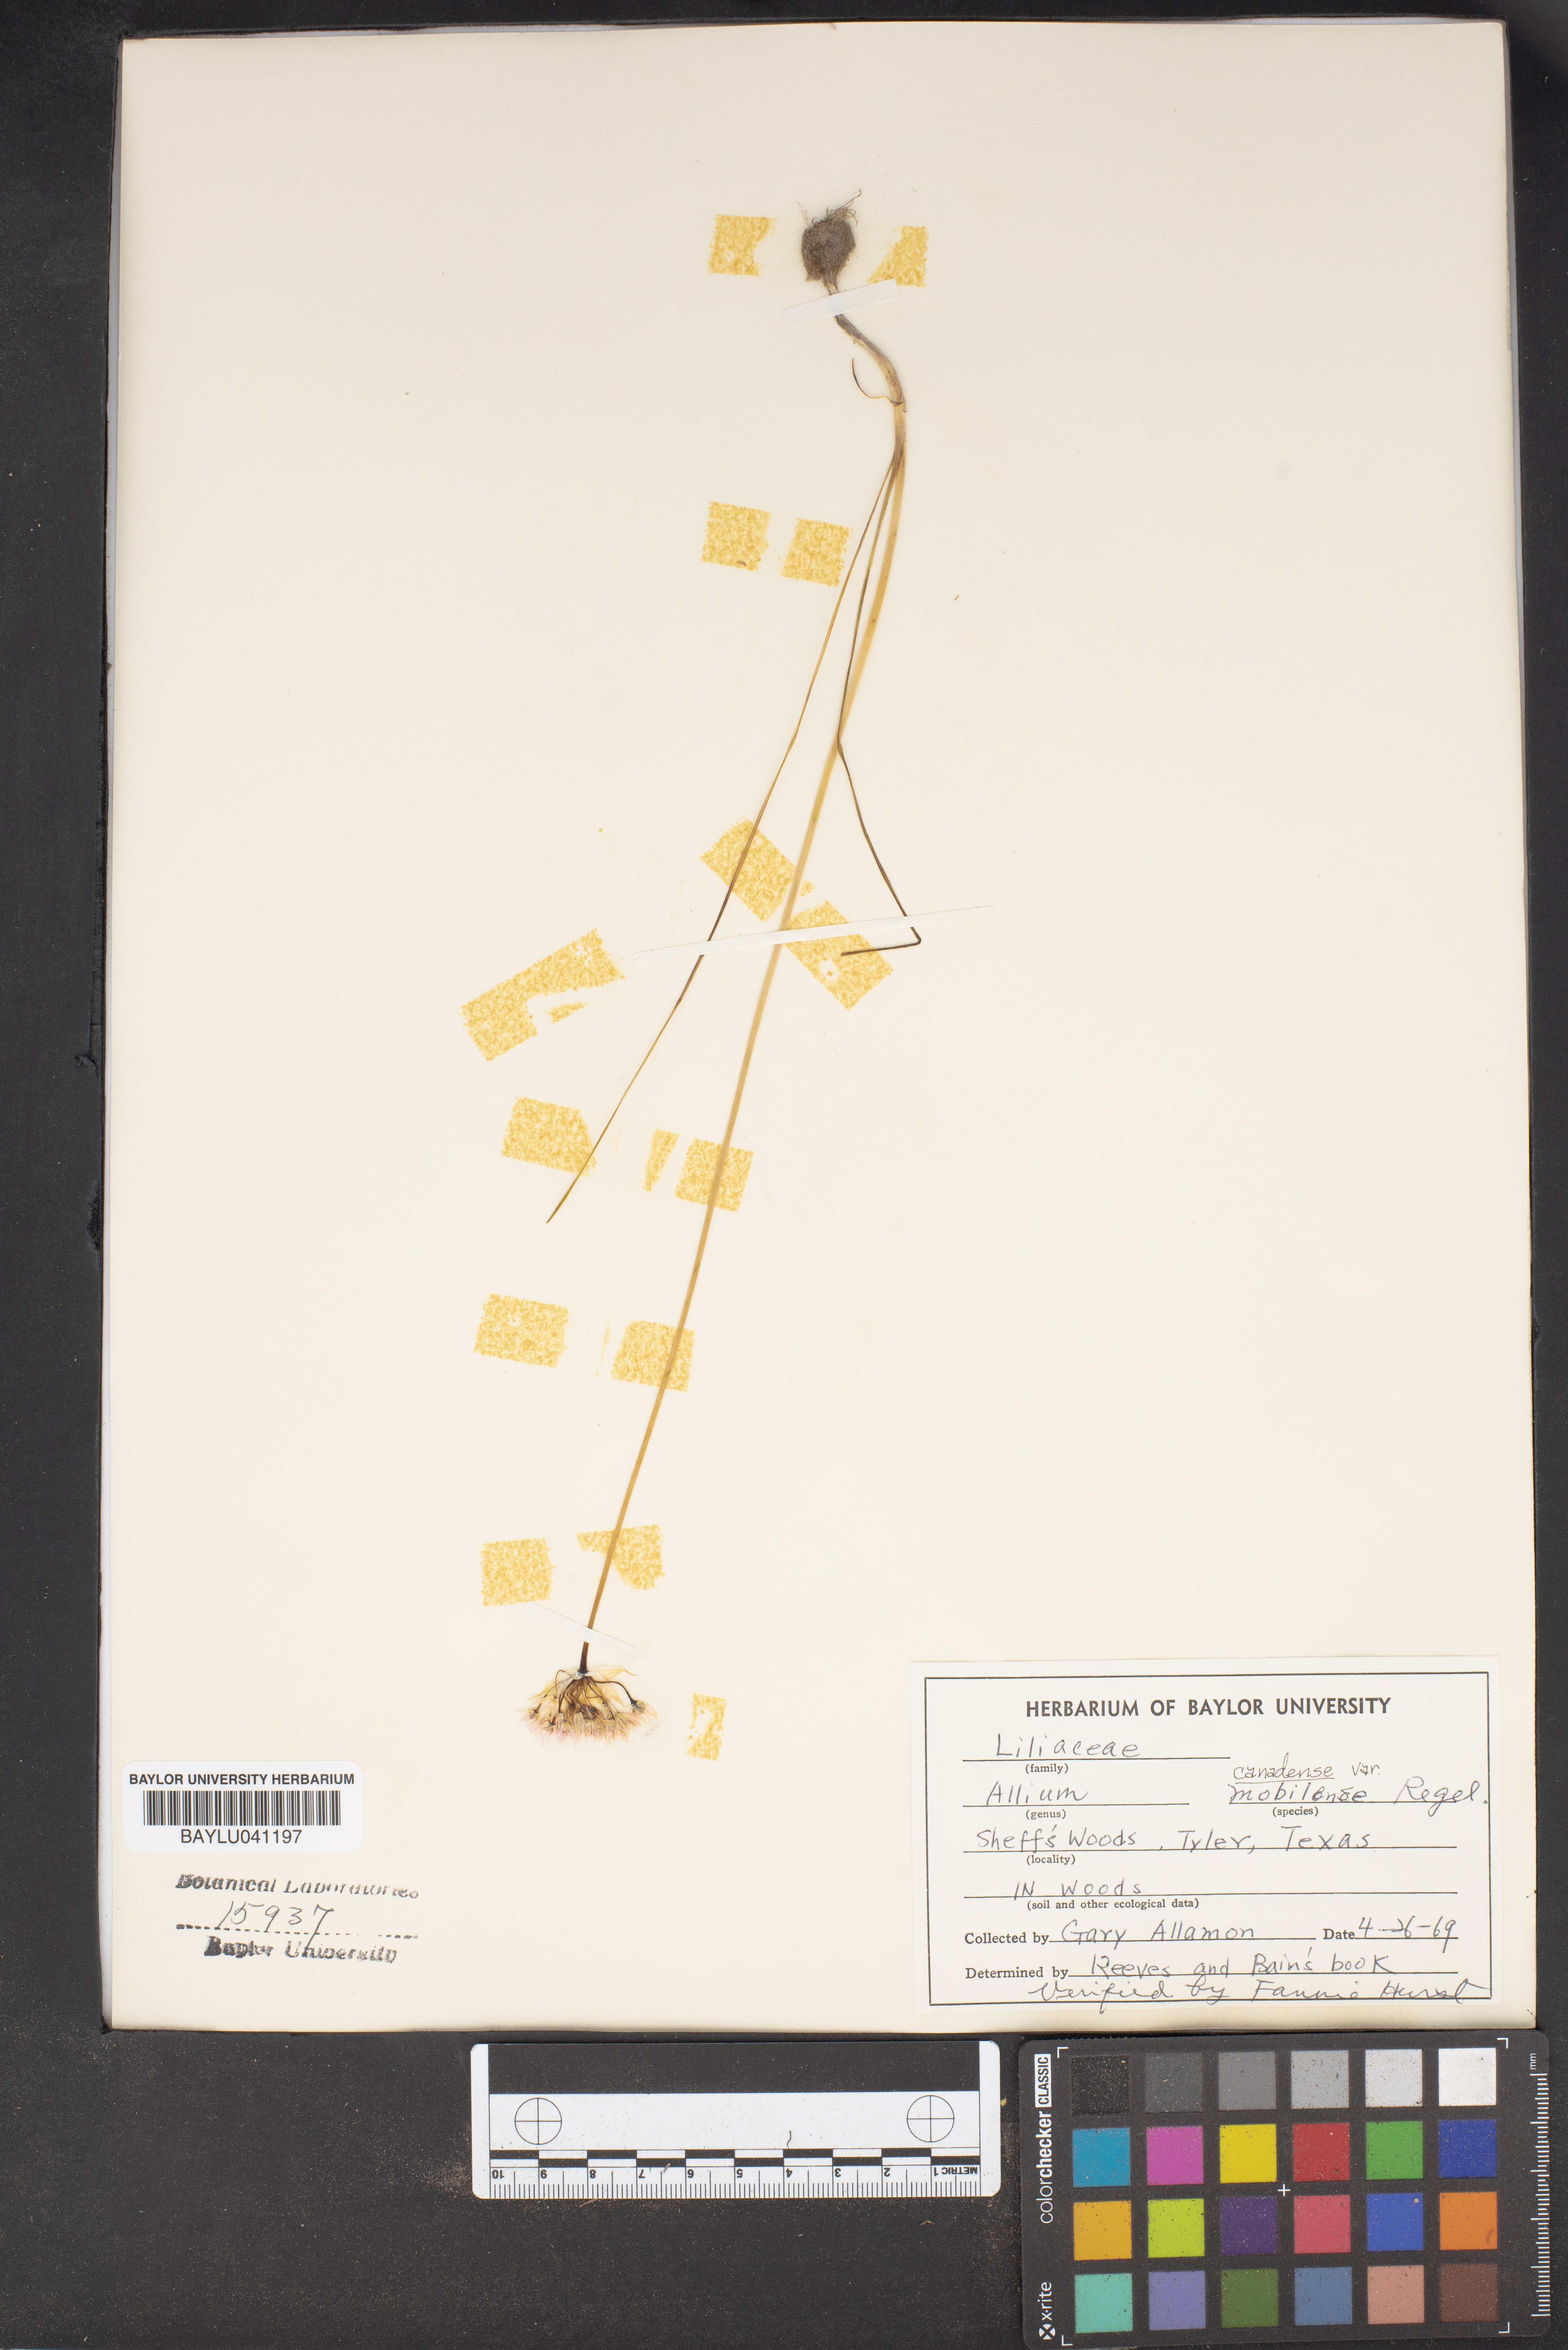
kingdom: Plantae
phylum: Tracheophyta
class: Liliopsida
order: Asparagales
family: Amaryllidaceae
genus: Allium
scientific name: Allium canadense
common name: Meadow garlic
